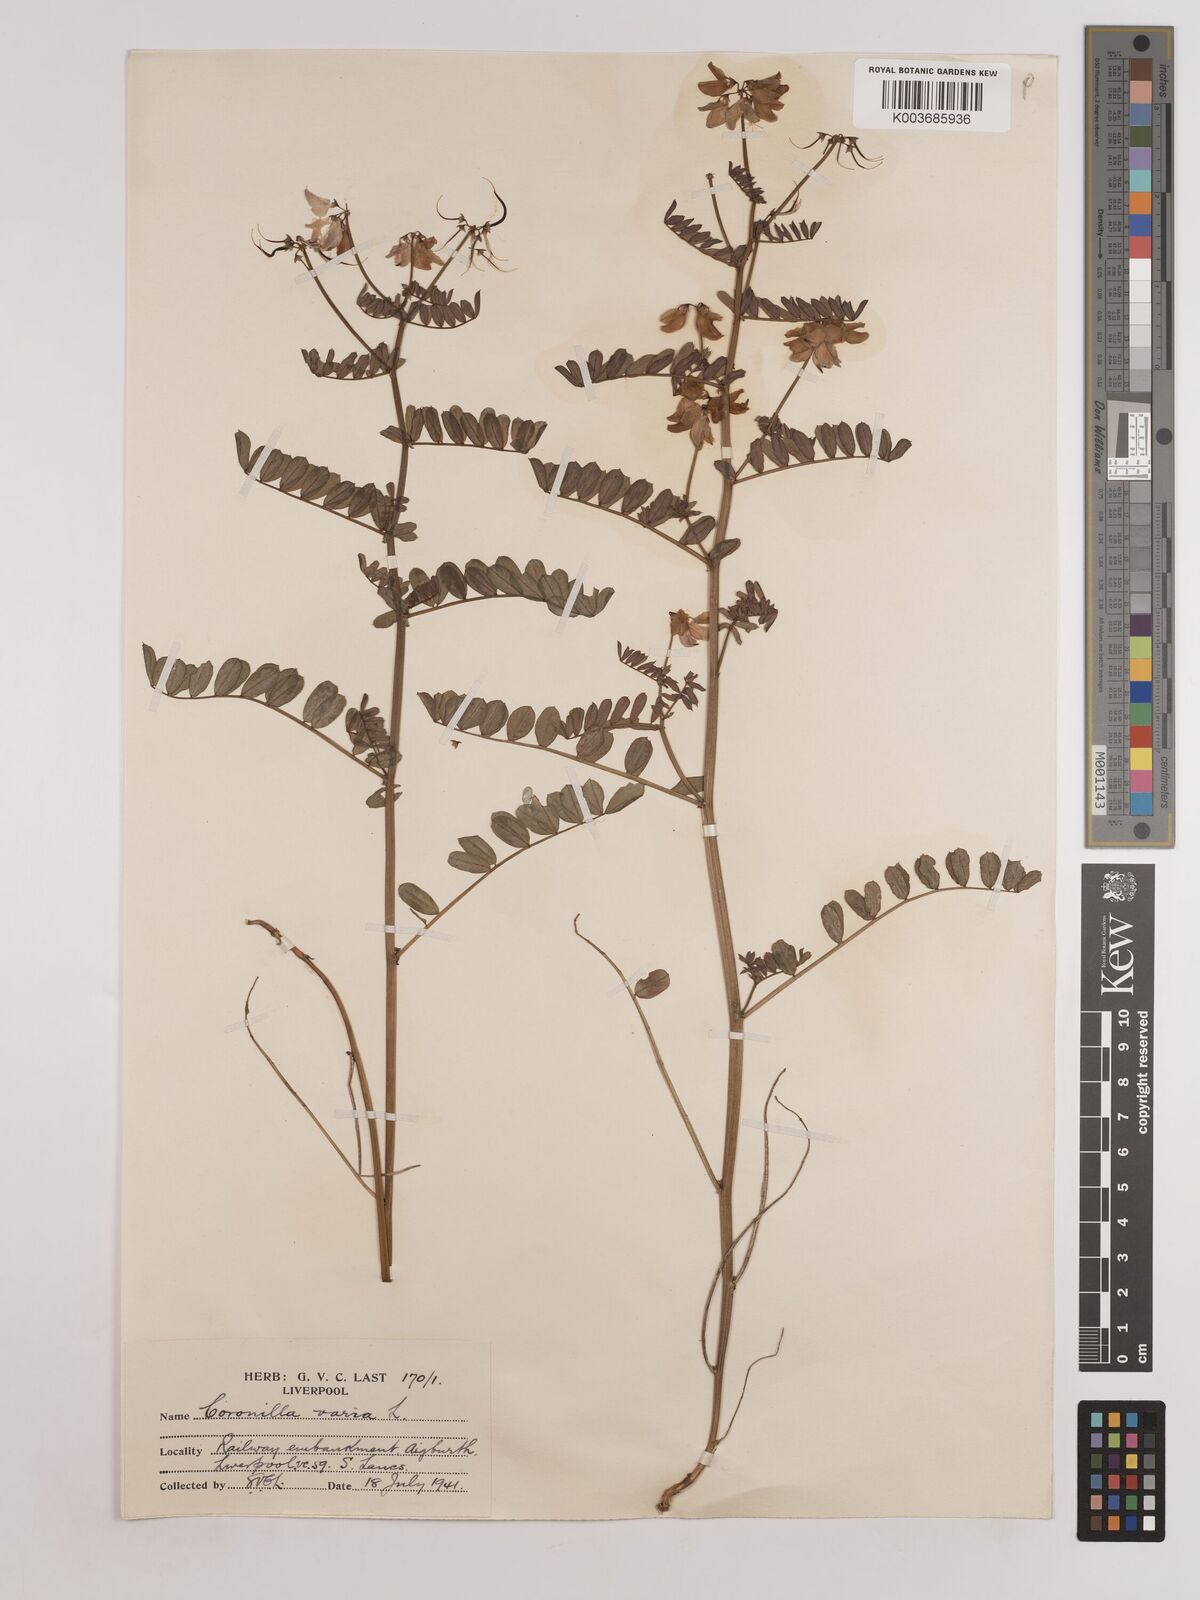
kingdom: Plantae
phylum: Tracheophyta
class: Magnoliopsida
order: Fabales
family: Fabaceae
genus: Coronilla
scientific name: Coronilla varia
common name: Crownvetch
